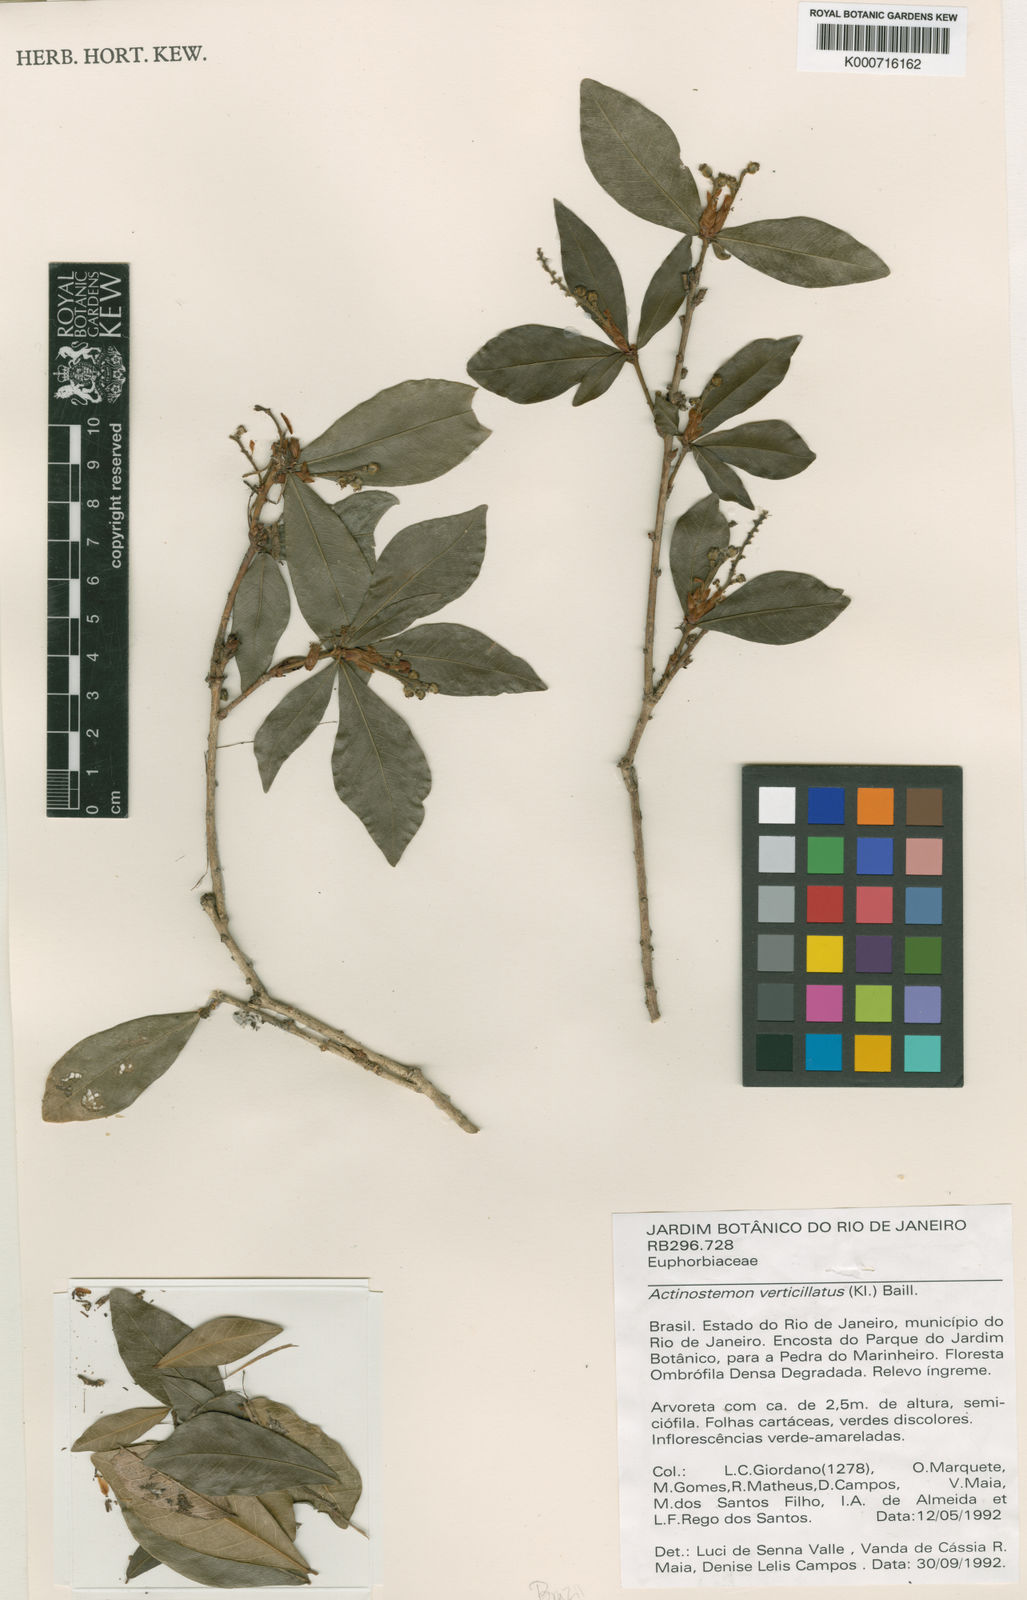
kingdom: Plantae
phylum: Tracheophyta
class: Magnoliopsida
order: Malpighiales
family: Euphorbiaceae
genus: Actinostemon
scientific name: Actinostemon verticillatus
